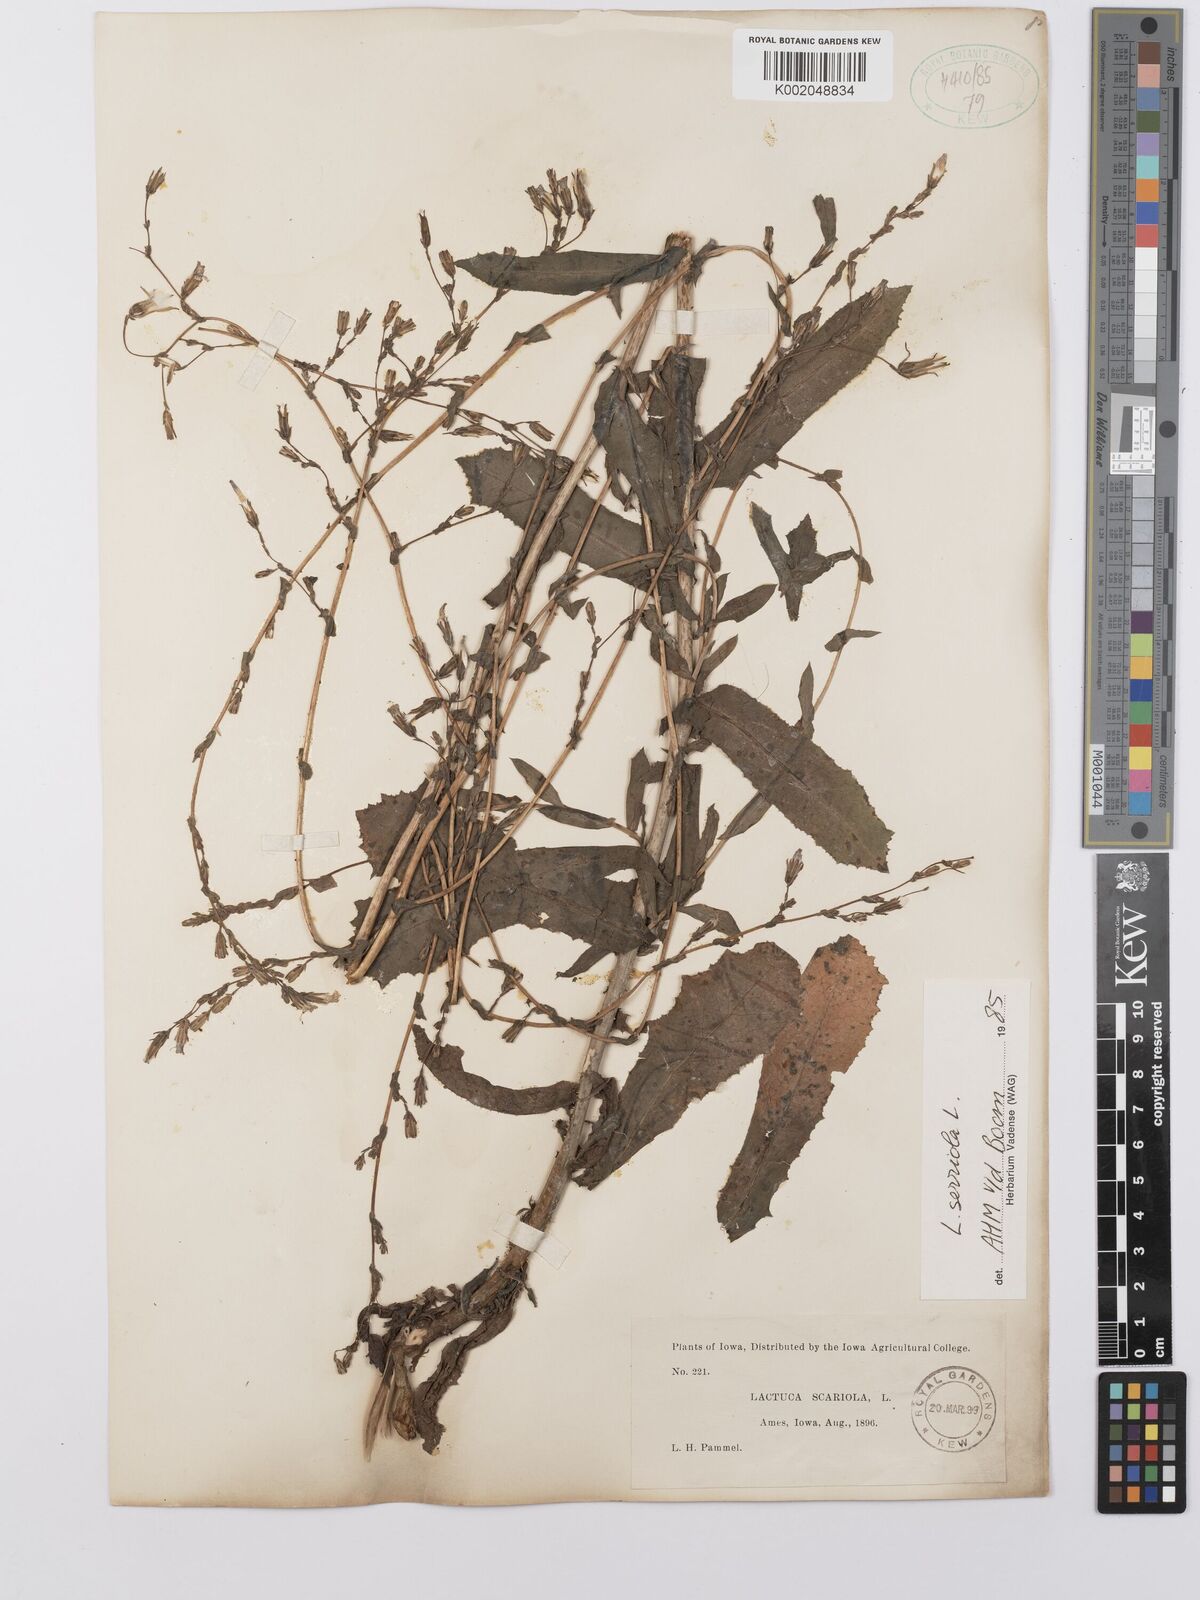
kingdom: Plantae
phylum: Tracheophyta
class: Magnoliopsida
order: Asterales
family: Asteraceae
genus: Lactuca
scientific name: Lactuca serriola
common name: Prickly lettuce
